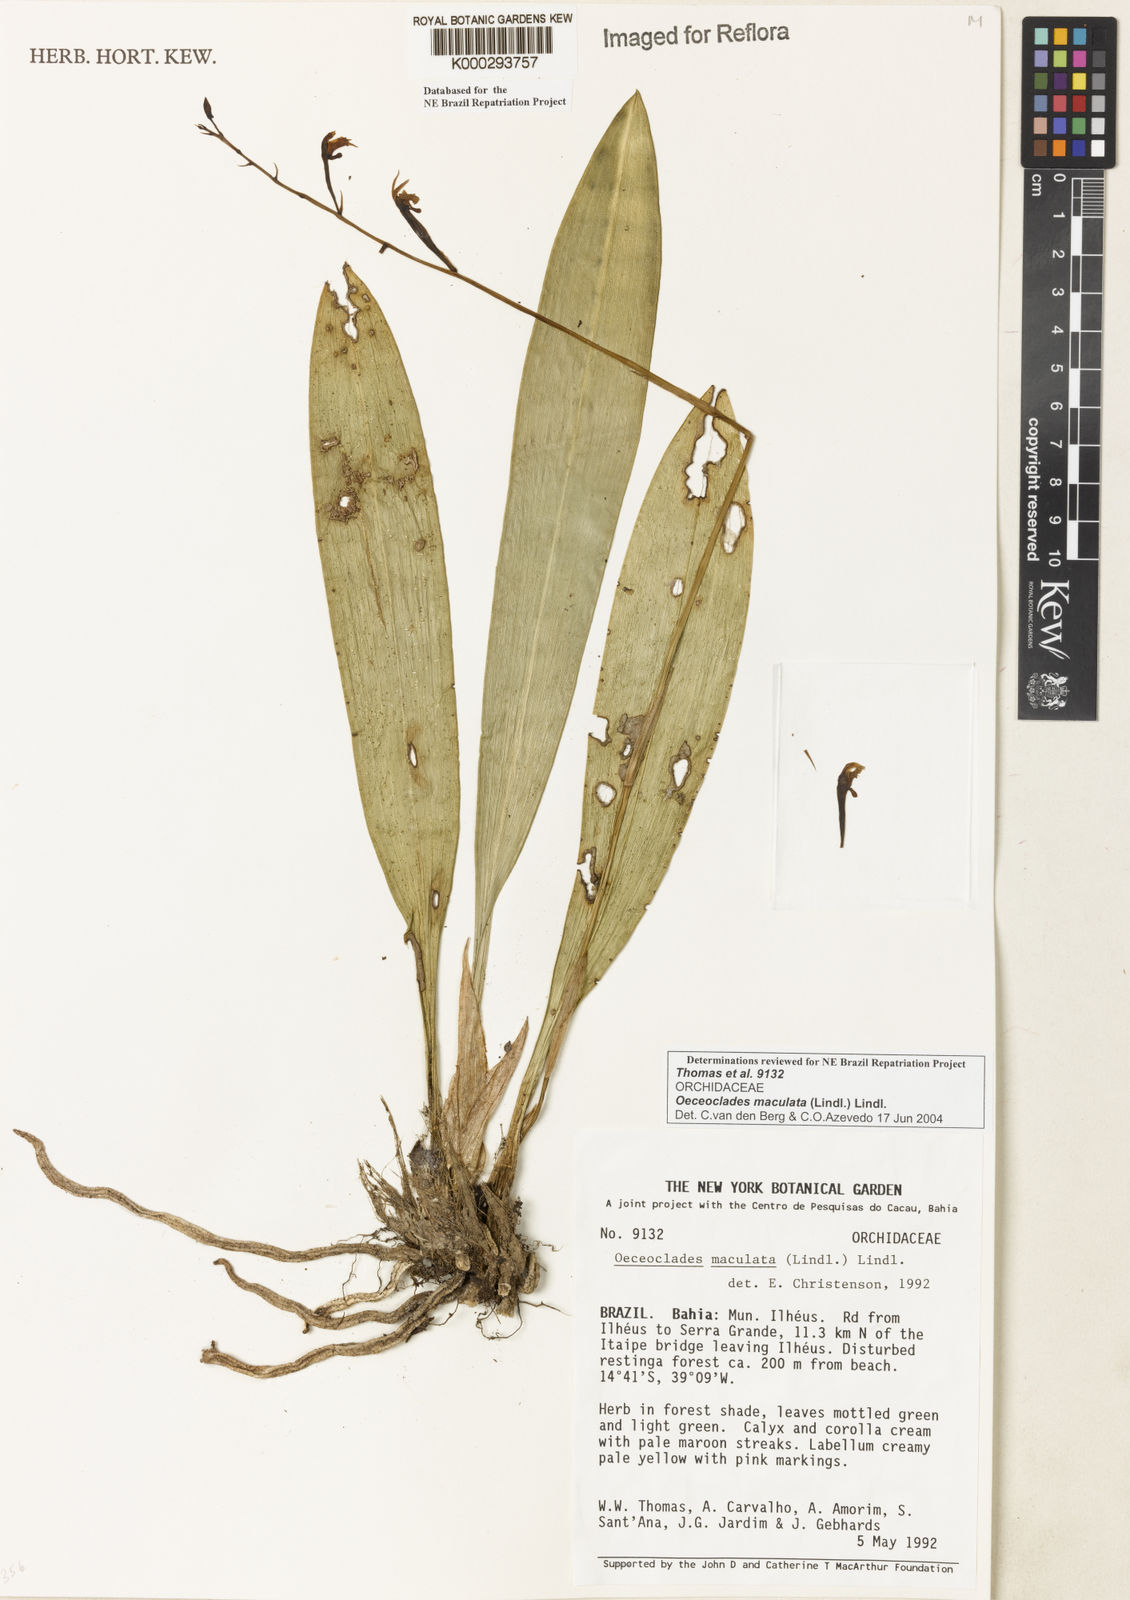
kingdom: Plantae
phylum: Tracheophyta
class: Liliopsida
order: Asparagales
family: Orchidaceae
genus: Eulophia
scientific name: Eulophia maculata
